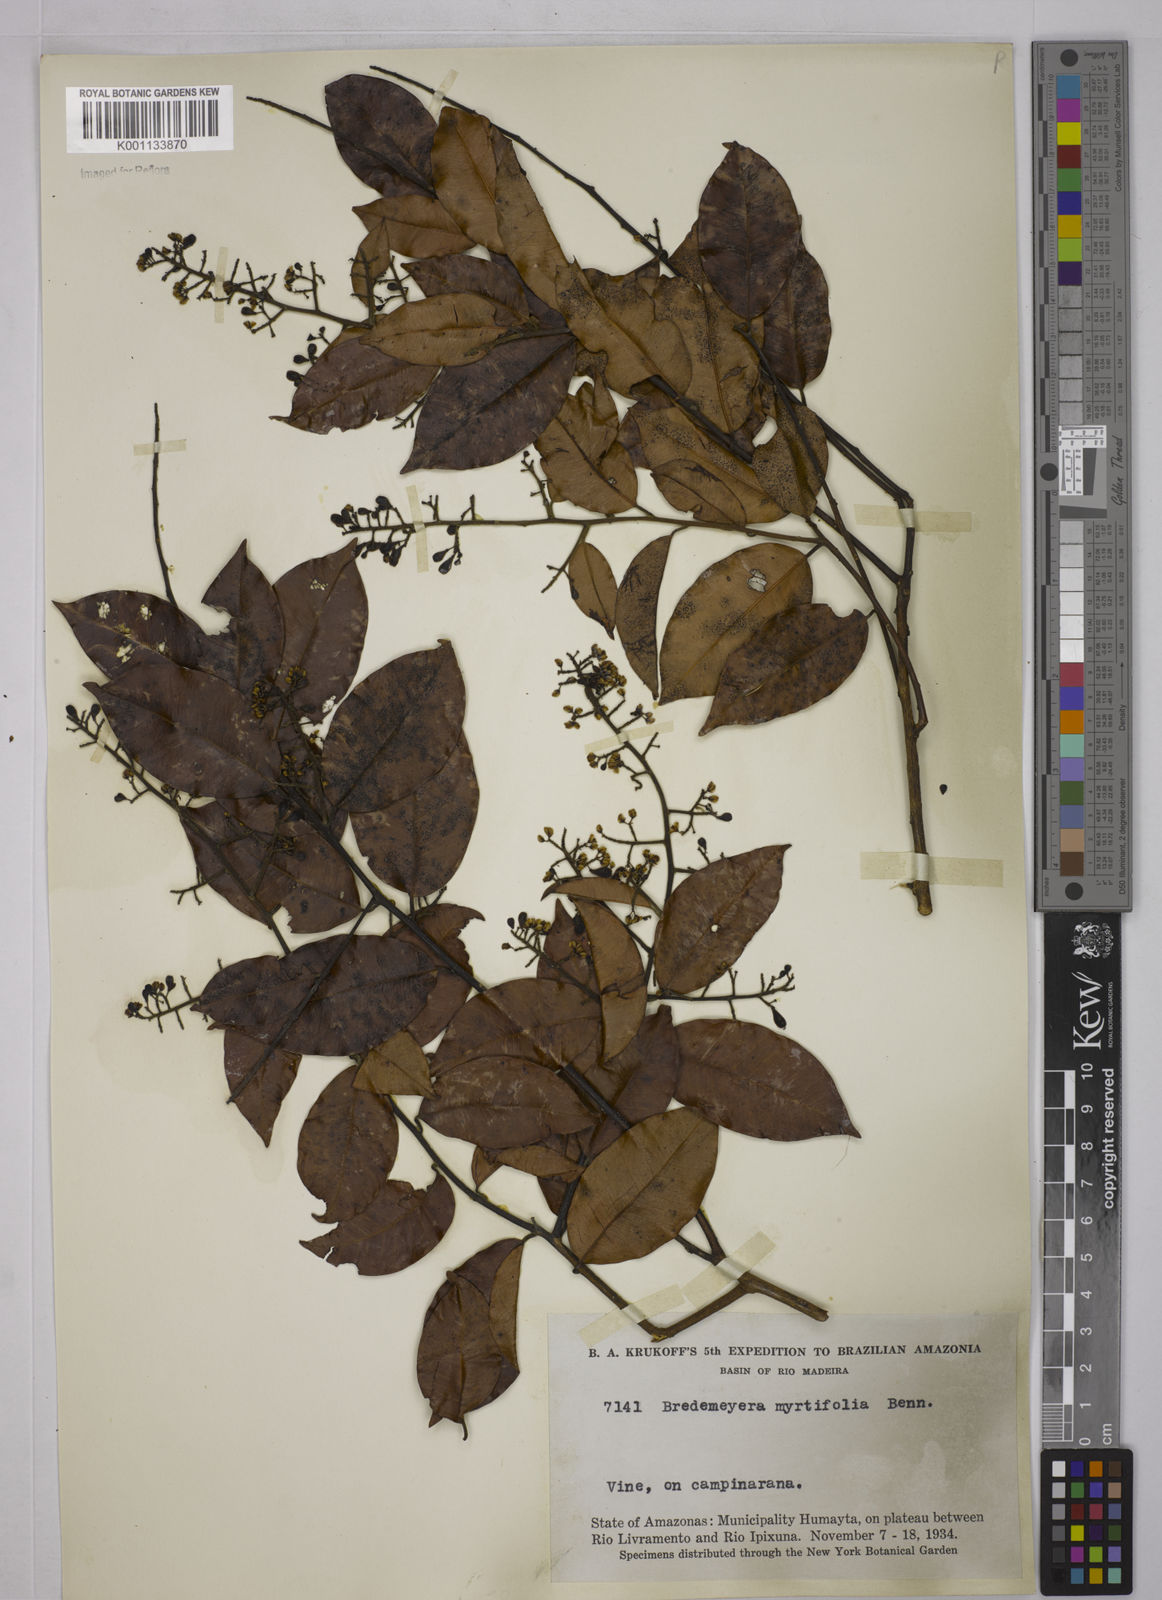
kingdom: Plantae
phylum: Tracheophyta
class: Magnoliopsida
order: Fabales
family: Polygalaceae
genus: Bredemeyera
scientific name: Bredemeyera
